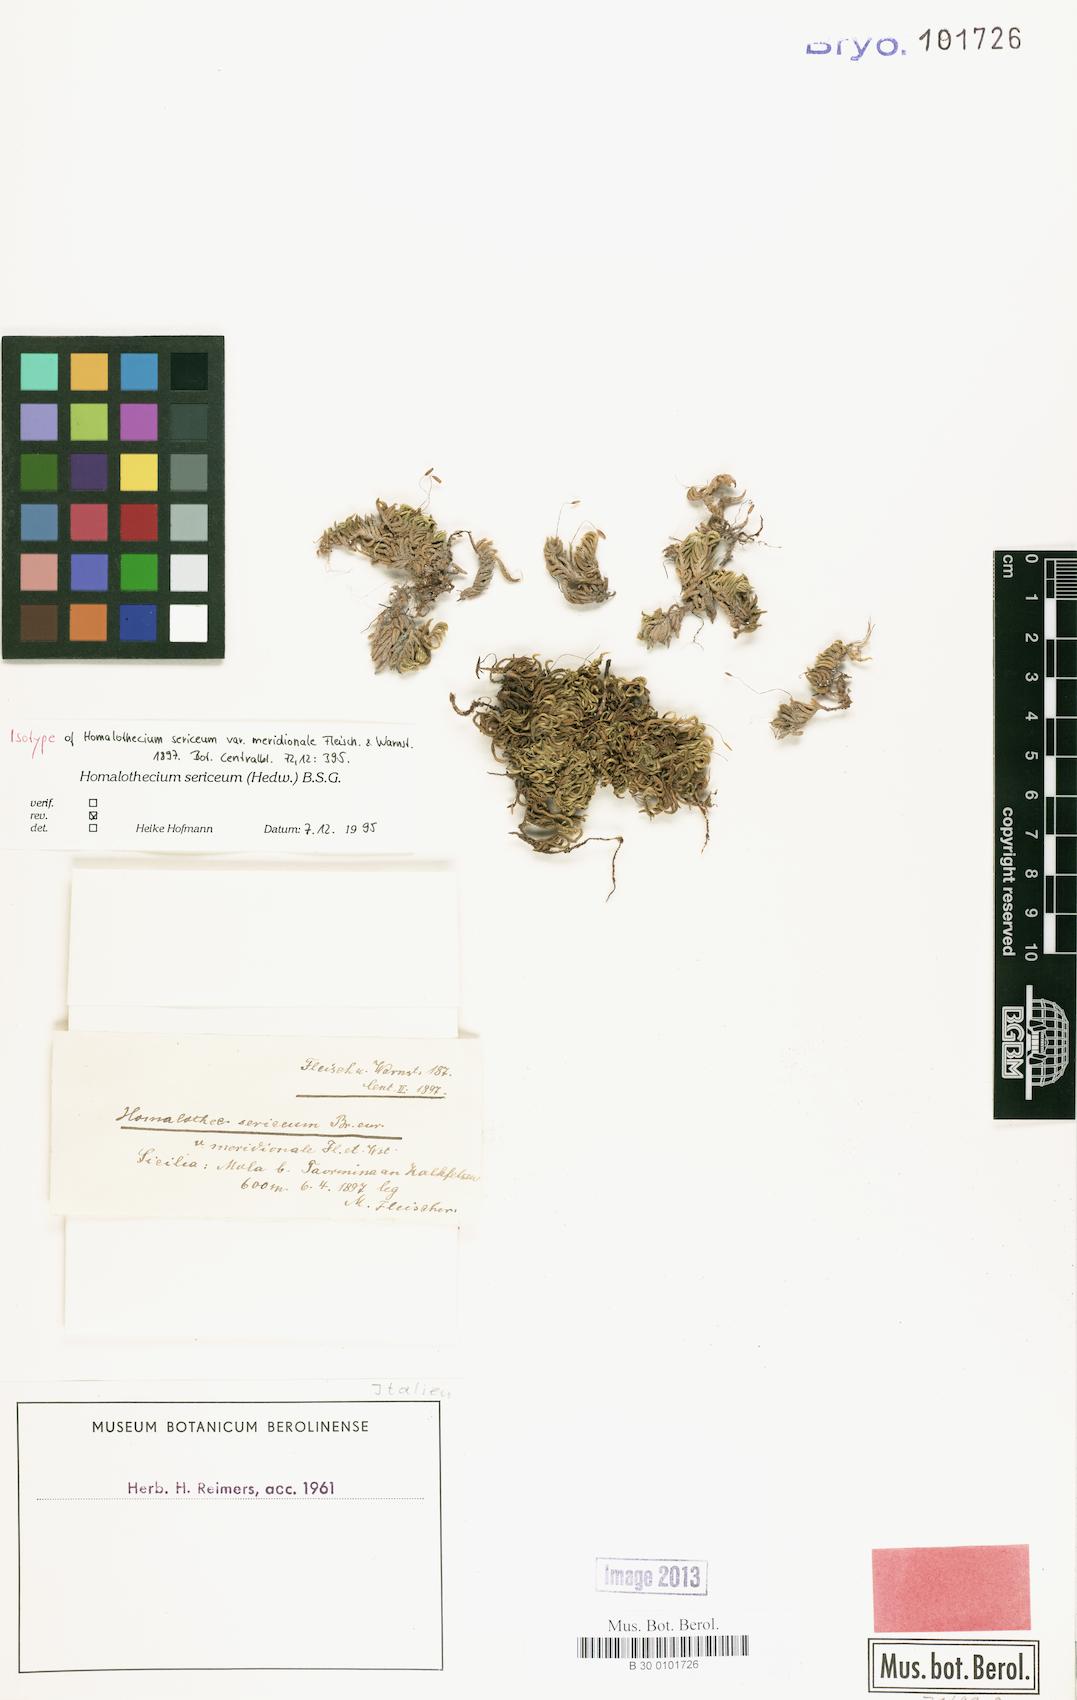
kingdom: Plantae
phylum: Bryophyta
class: Bryopsida
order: Hypnales
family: Brachytheciaceae
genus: Homalothecium
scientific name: Homalothecium sericeum
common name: Silky wall feather-moss
